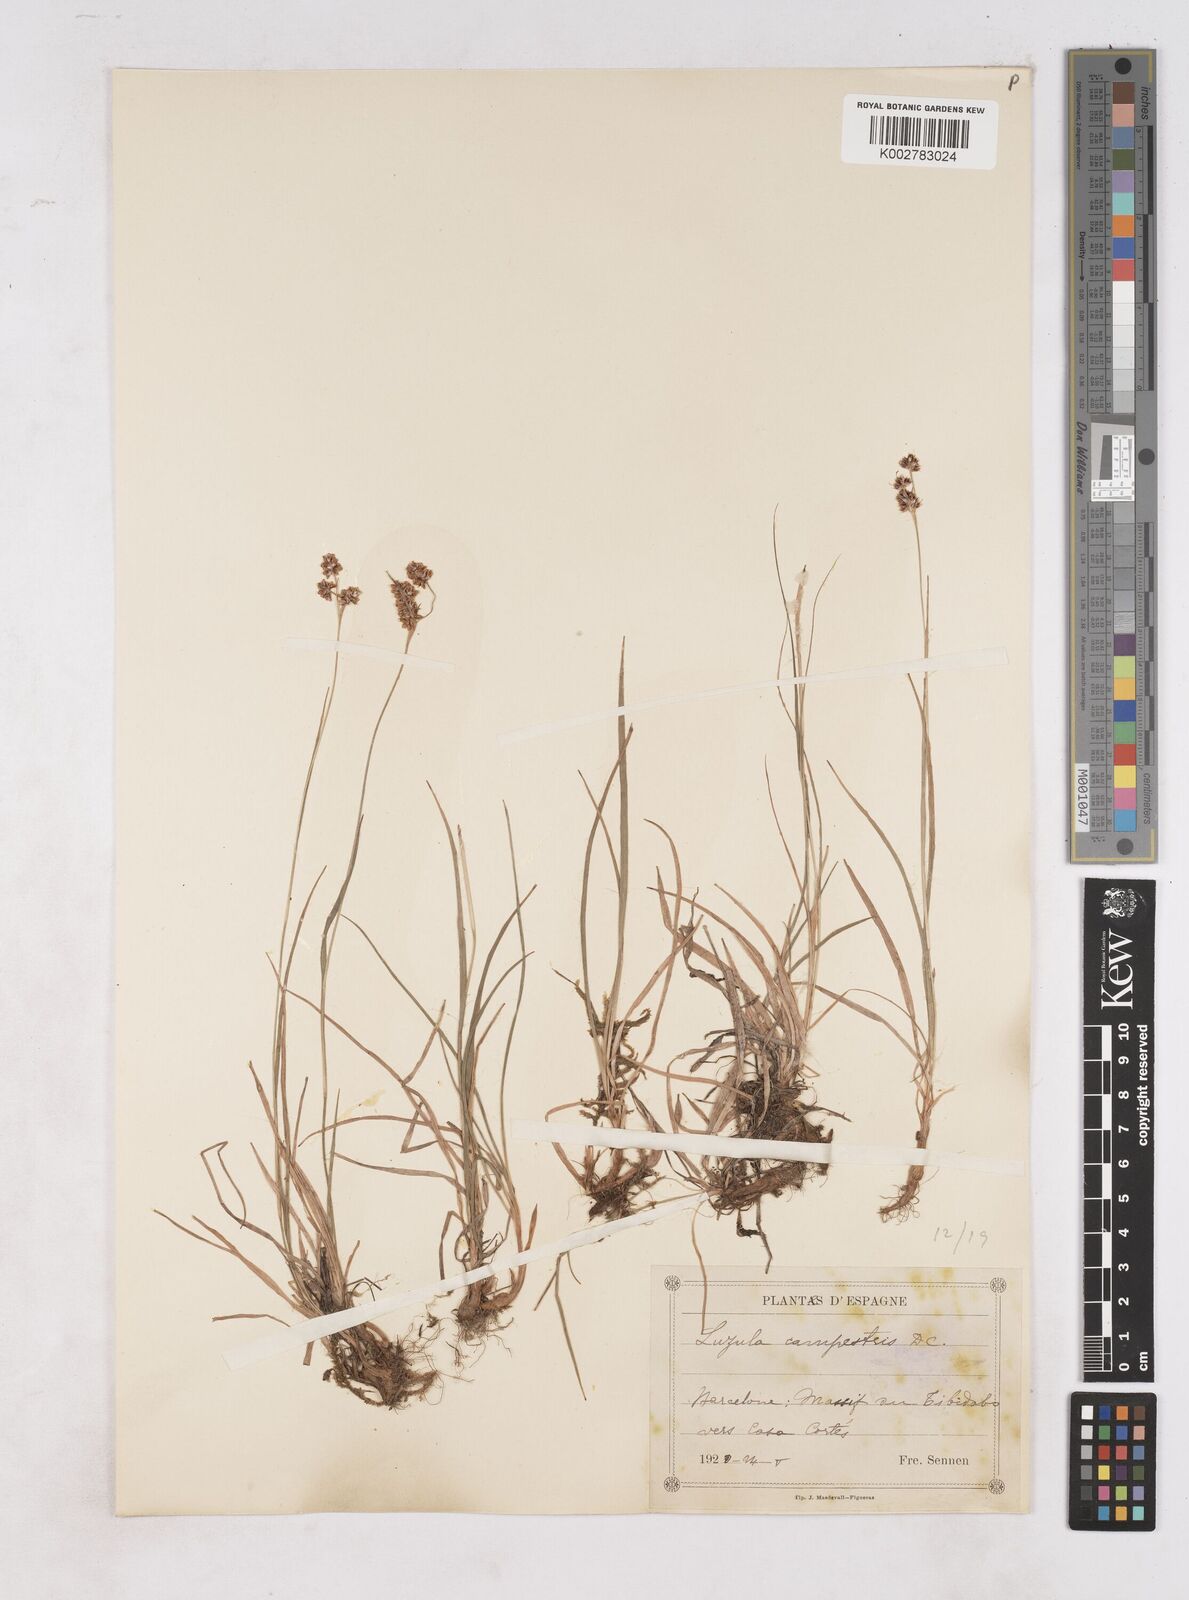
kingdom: Plantae
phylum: Tracheophyta
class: Liliopsida
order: Poales
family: Juncaceae
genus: Luzula
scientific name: Luzula campestris
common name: Field wood-rush
